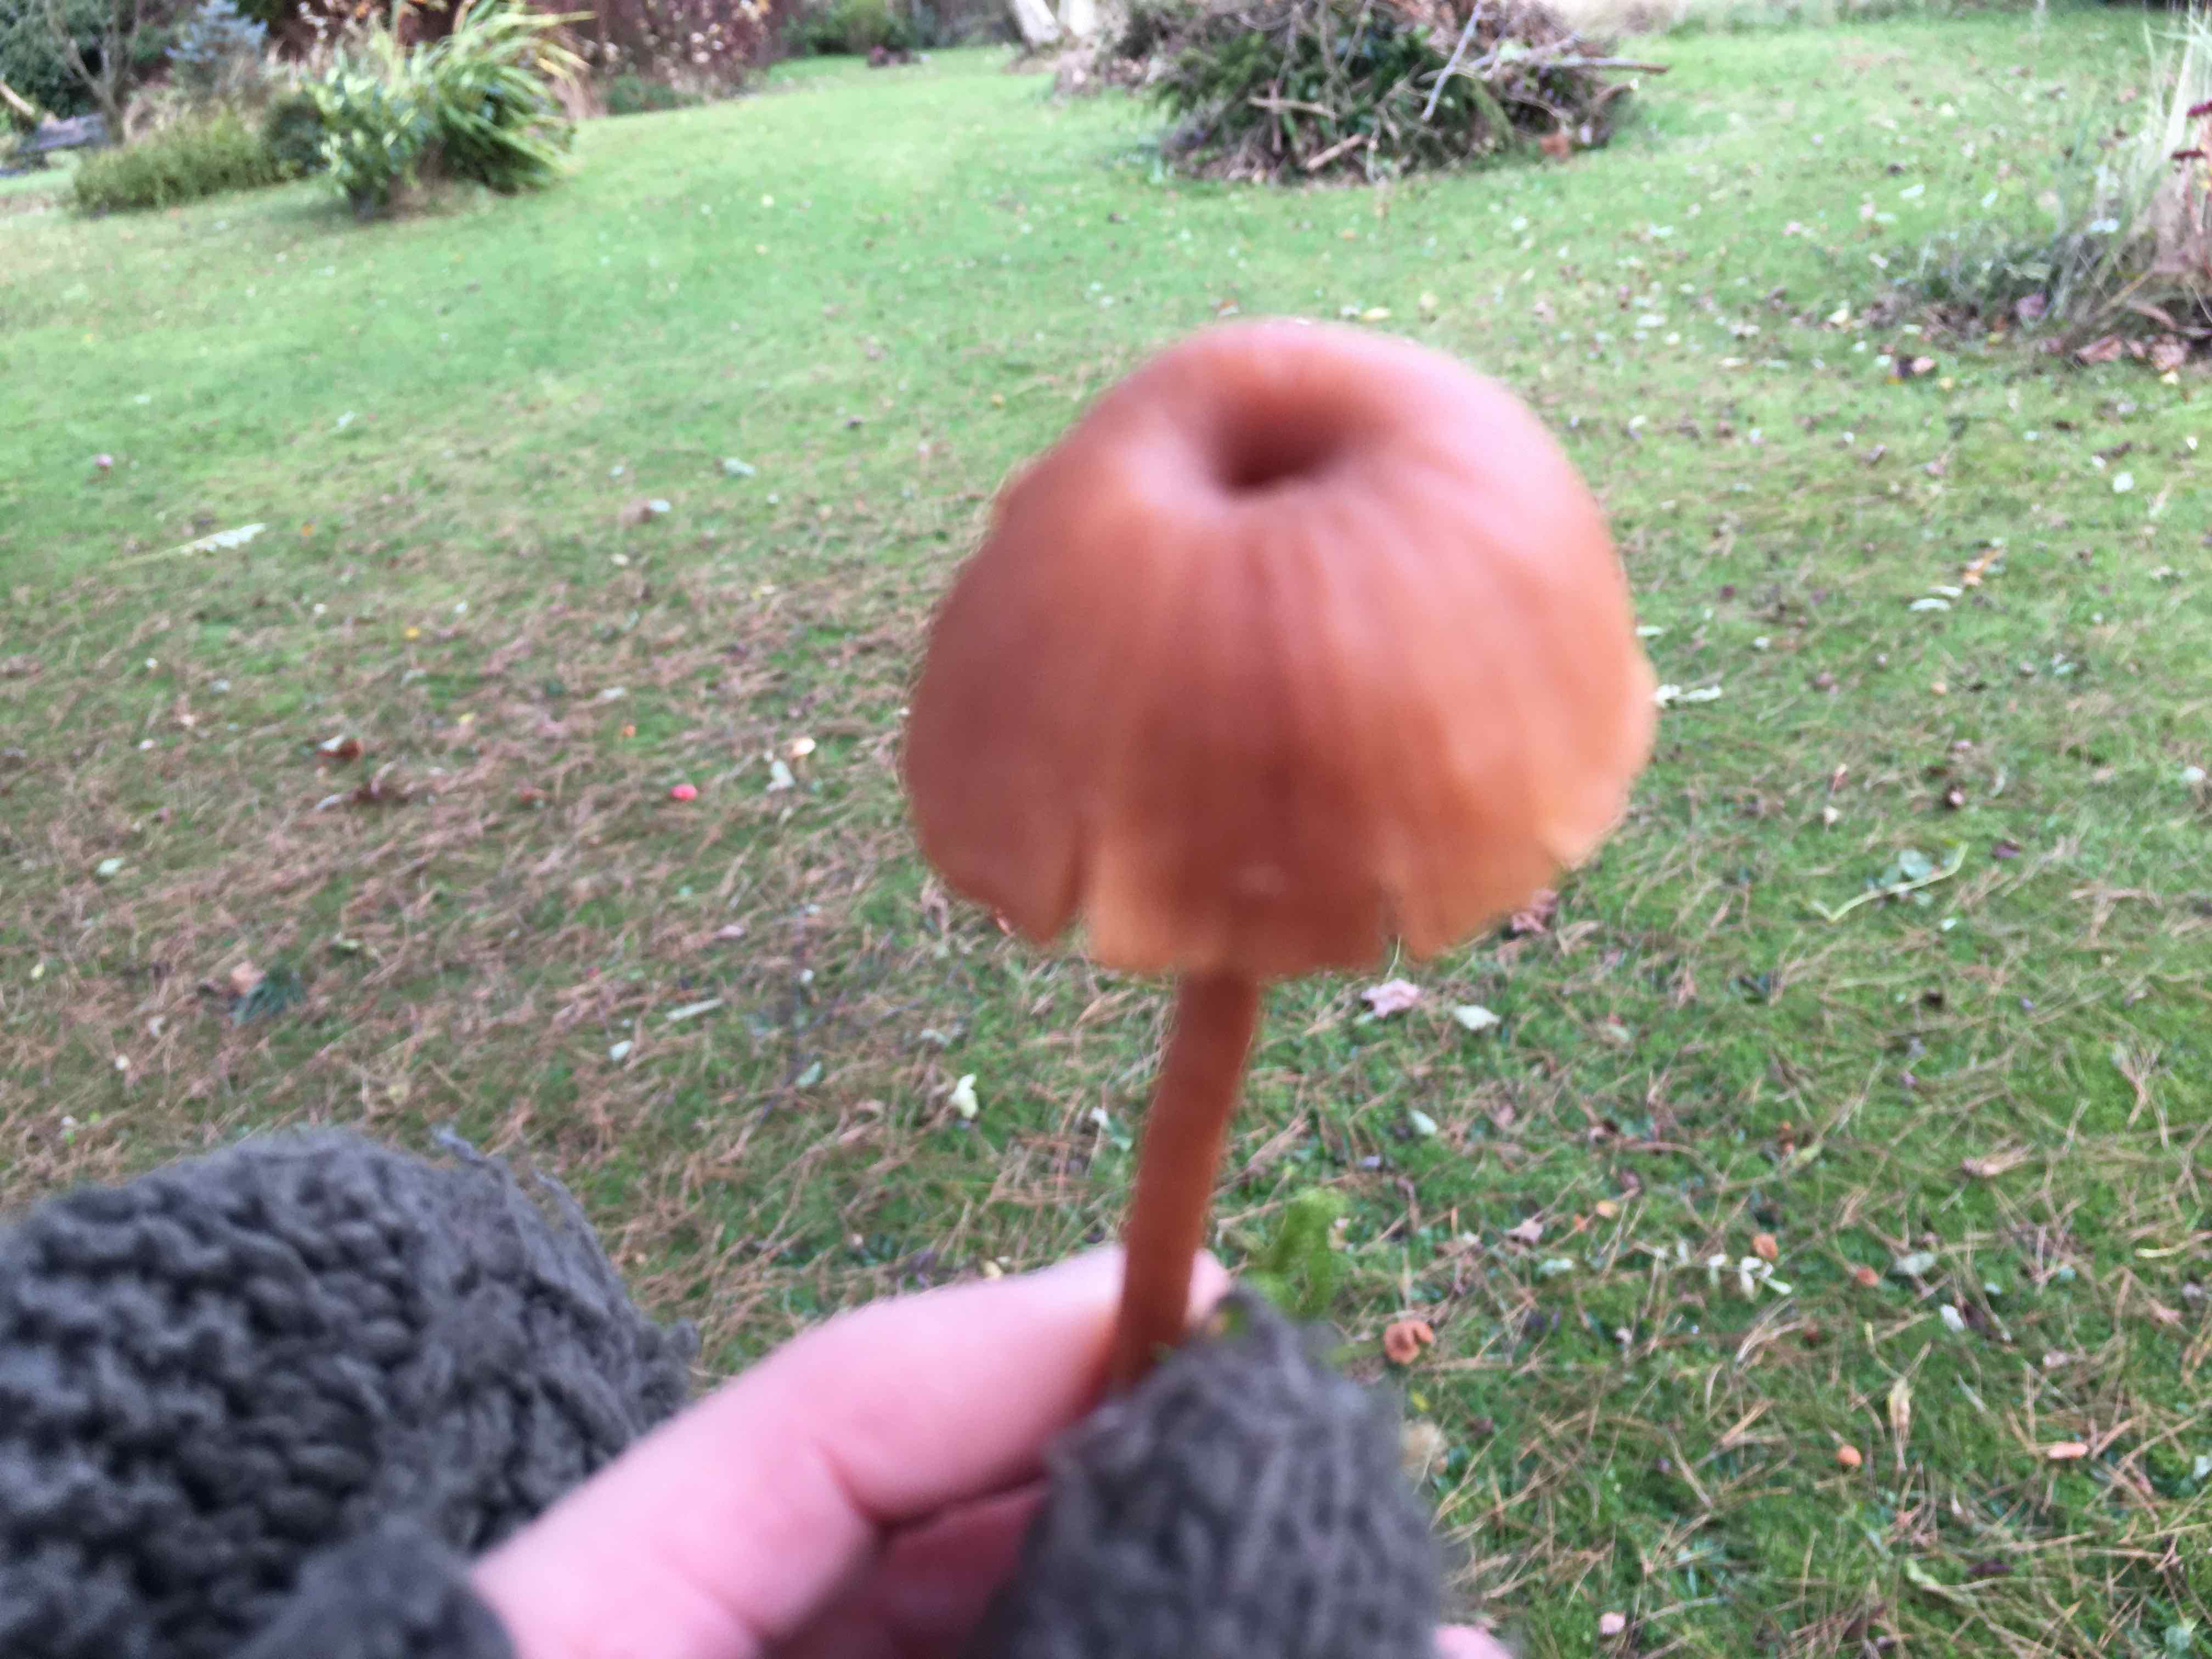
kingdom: Fungi
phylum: Basidiomycota
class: Agaricomycetes
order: Agaricales
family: Hydnangiaceae
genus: Laccaria
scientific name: Laccaria laccata
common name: rød ametysthat
